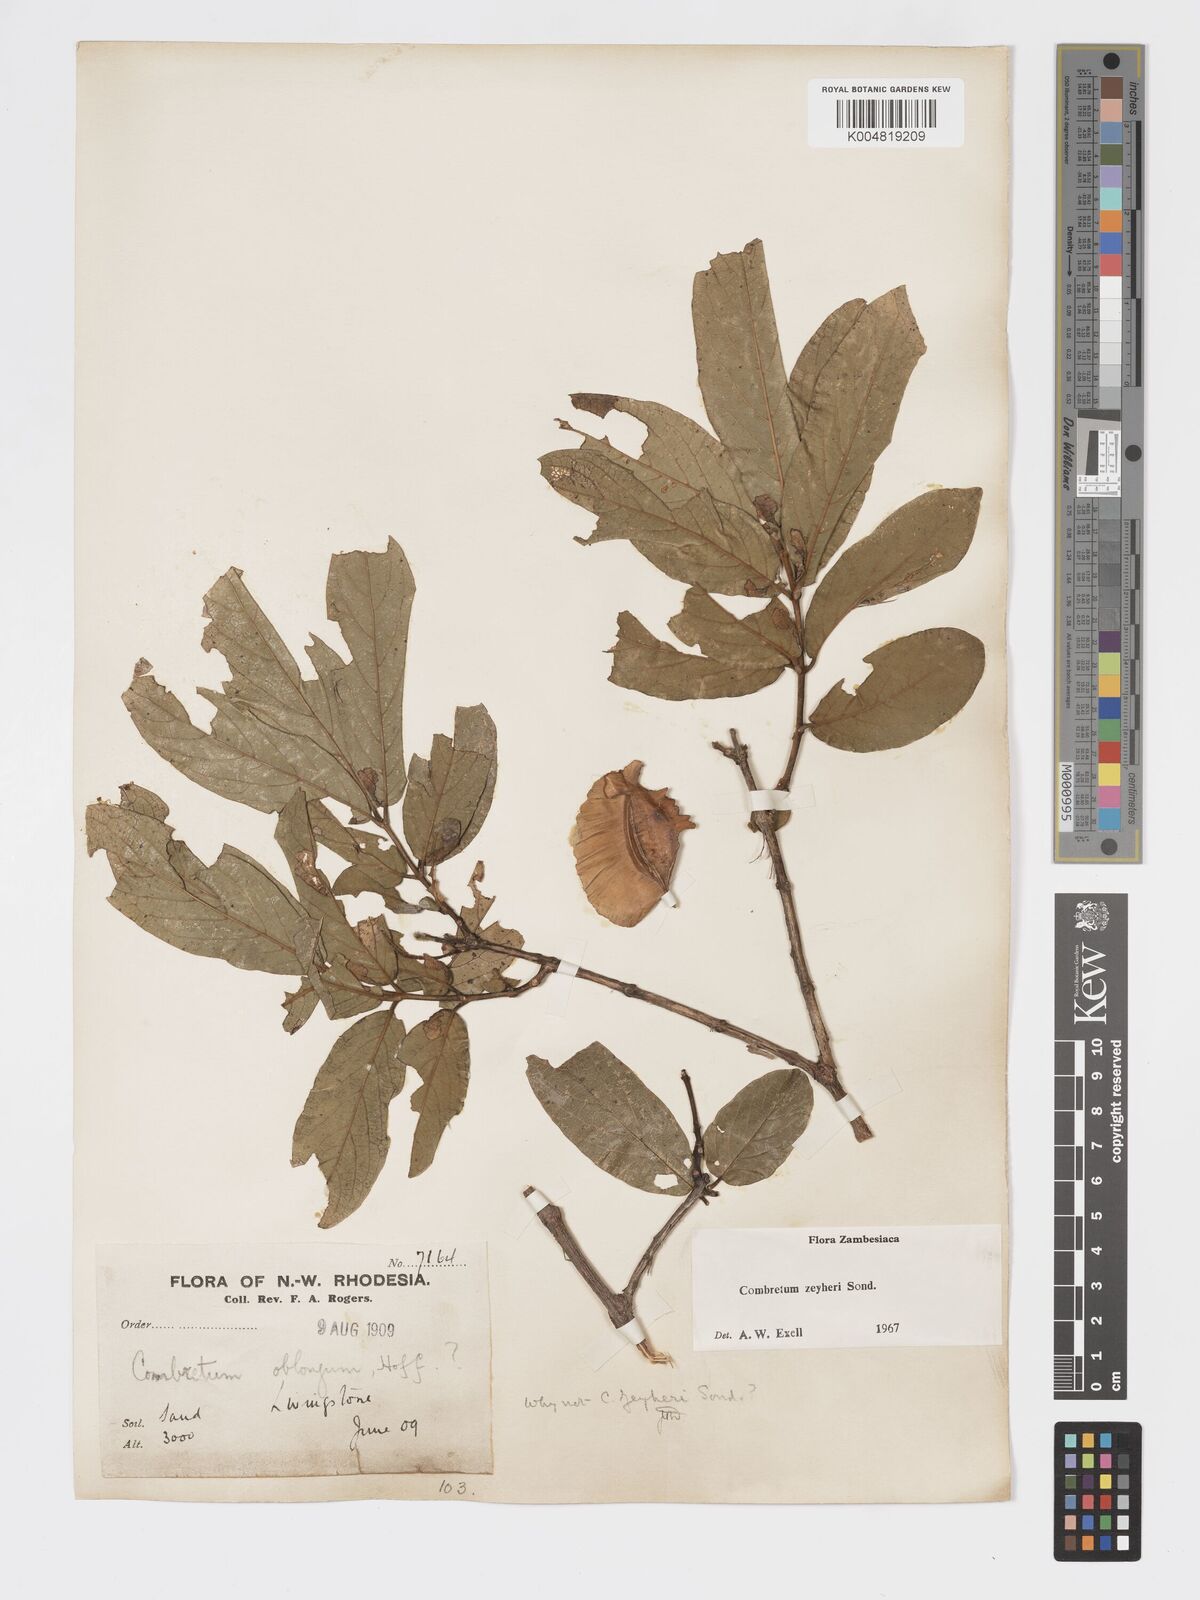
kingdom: Plantae
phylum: Tracheophyta
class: Magnoliopsida
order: Myrtales
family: Combretaceae
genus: Combretum
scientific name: Combretum zeyheri
